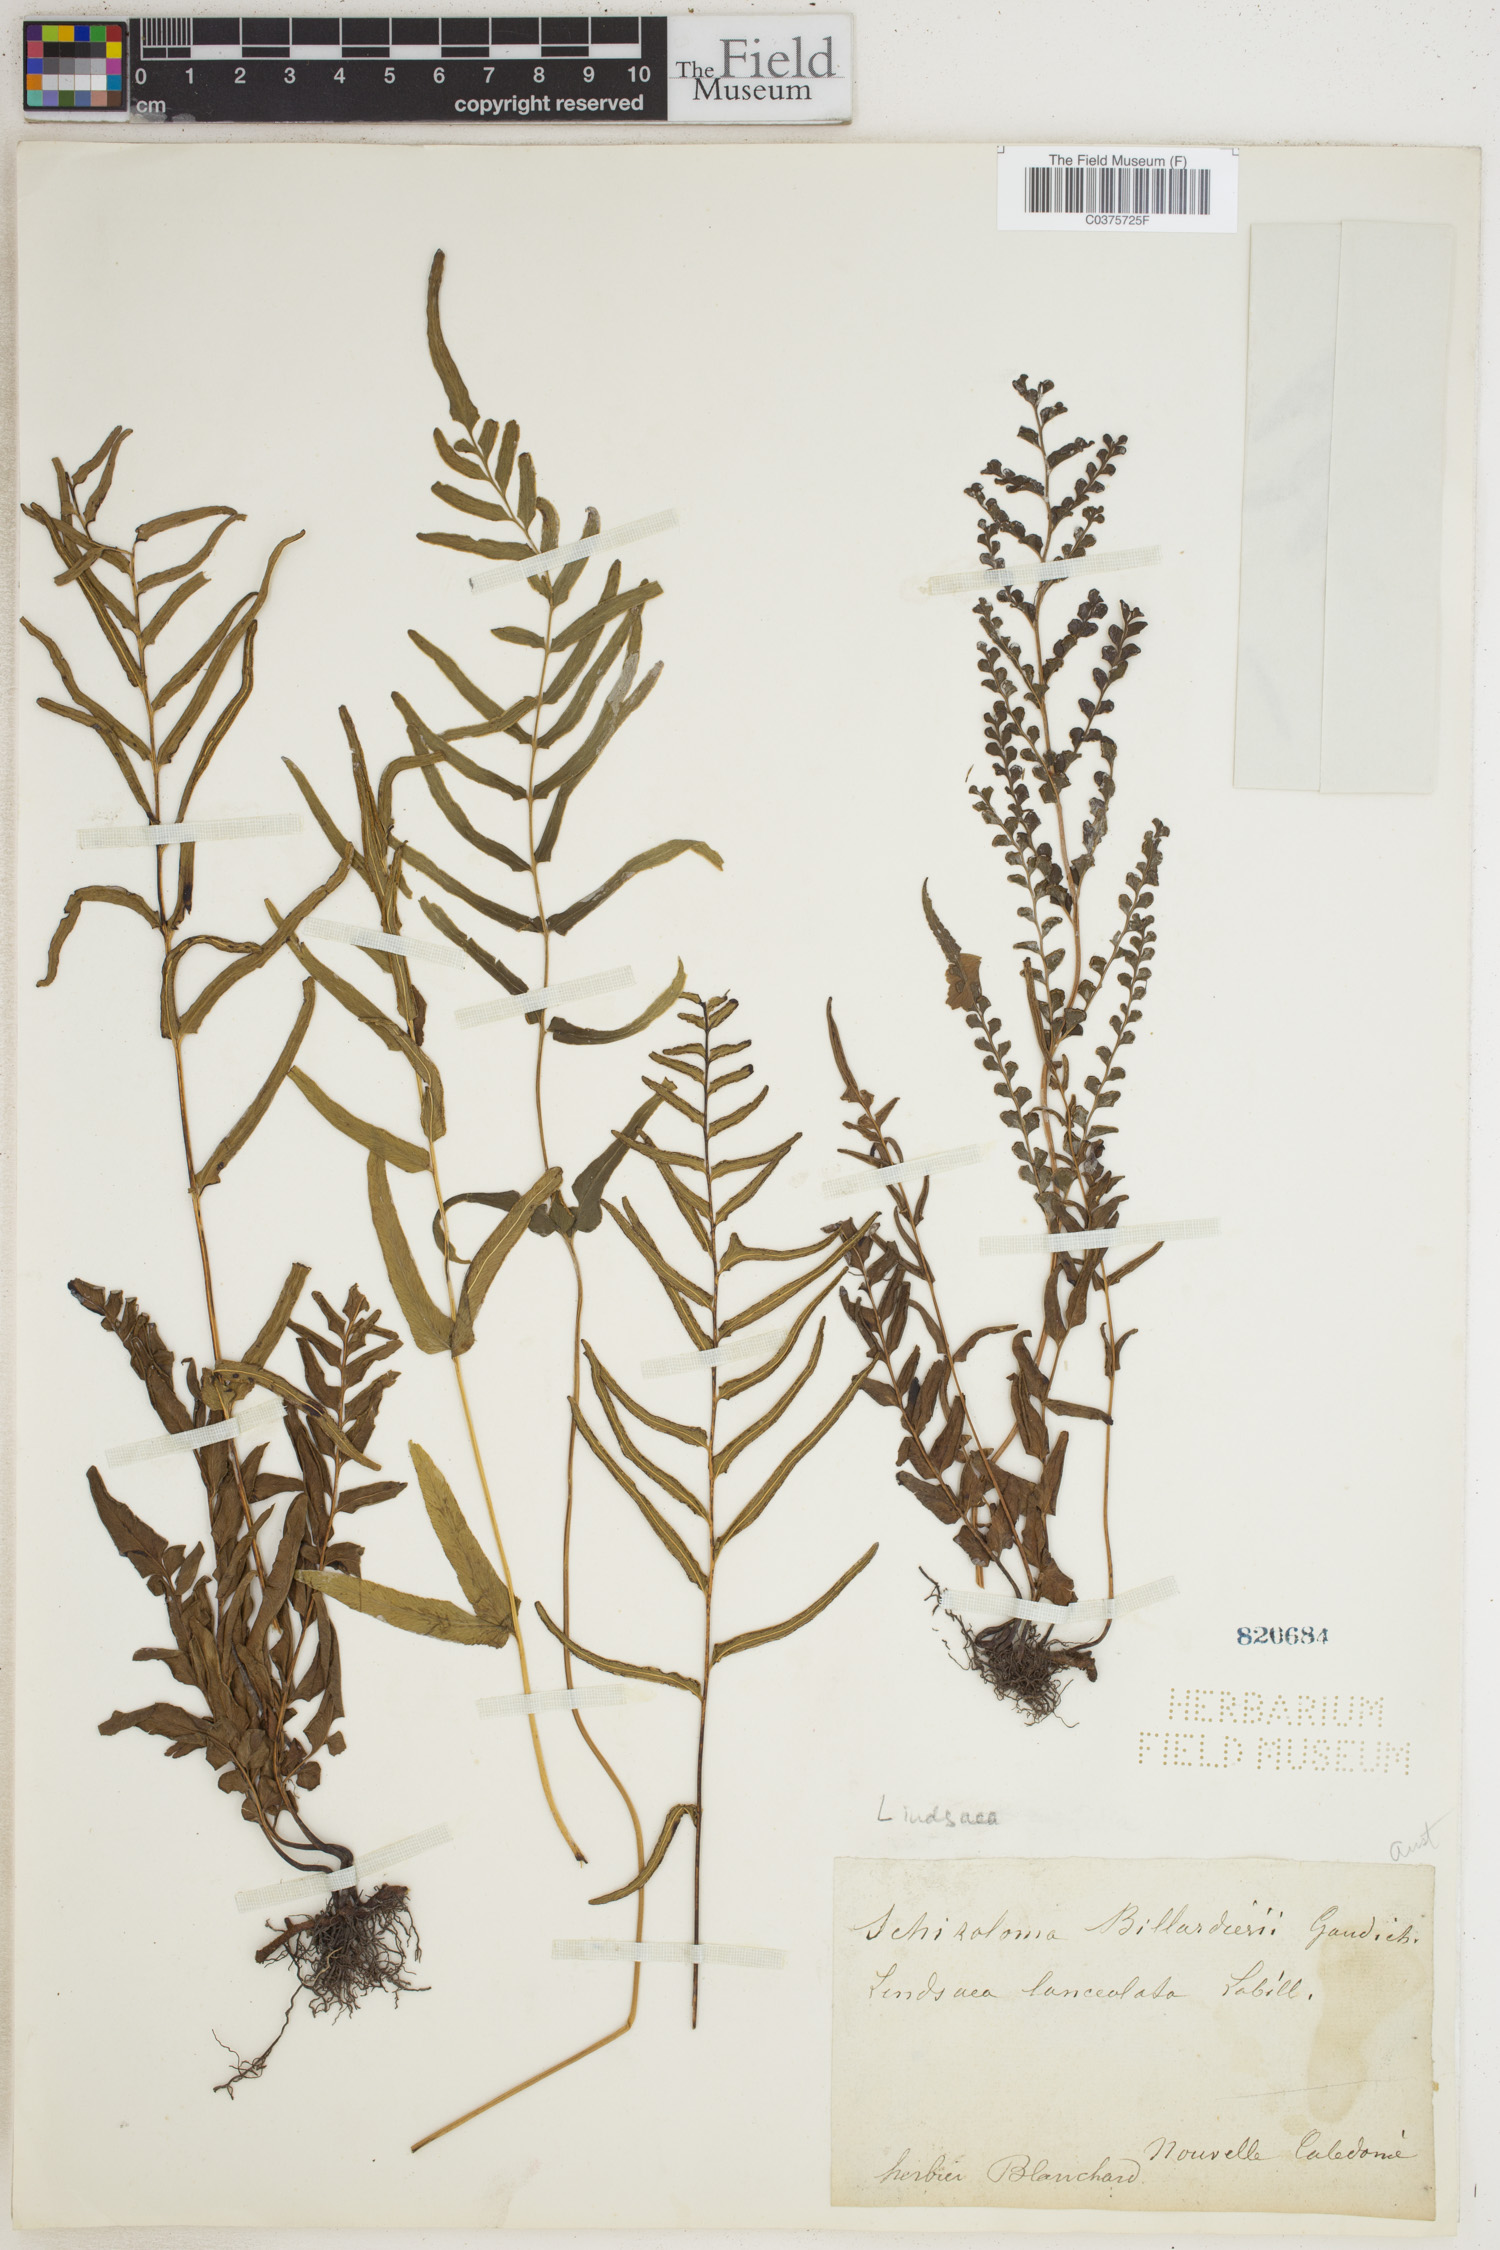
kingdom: Plantae
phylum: Tracheophyta
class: Polypodiopsida
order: Polypodiales
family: Lindsaeaceae
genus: Lindsaea
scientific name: Lindsaea
